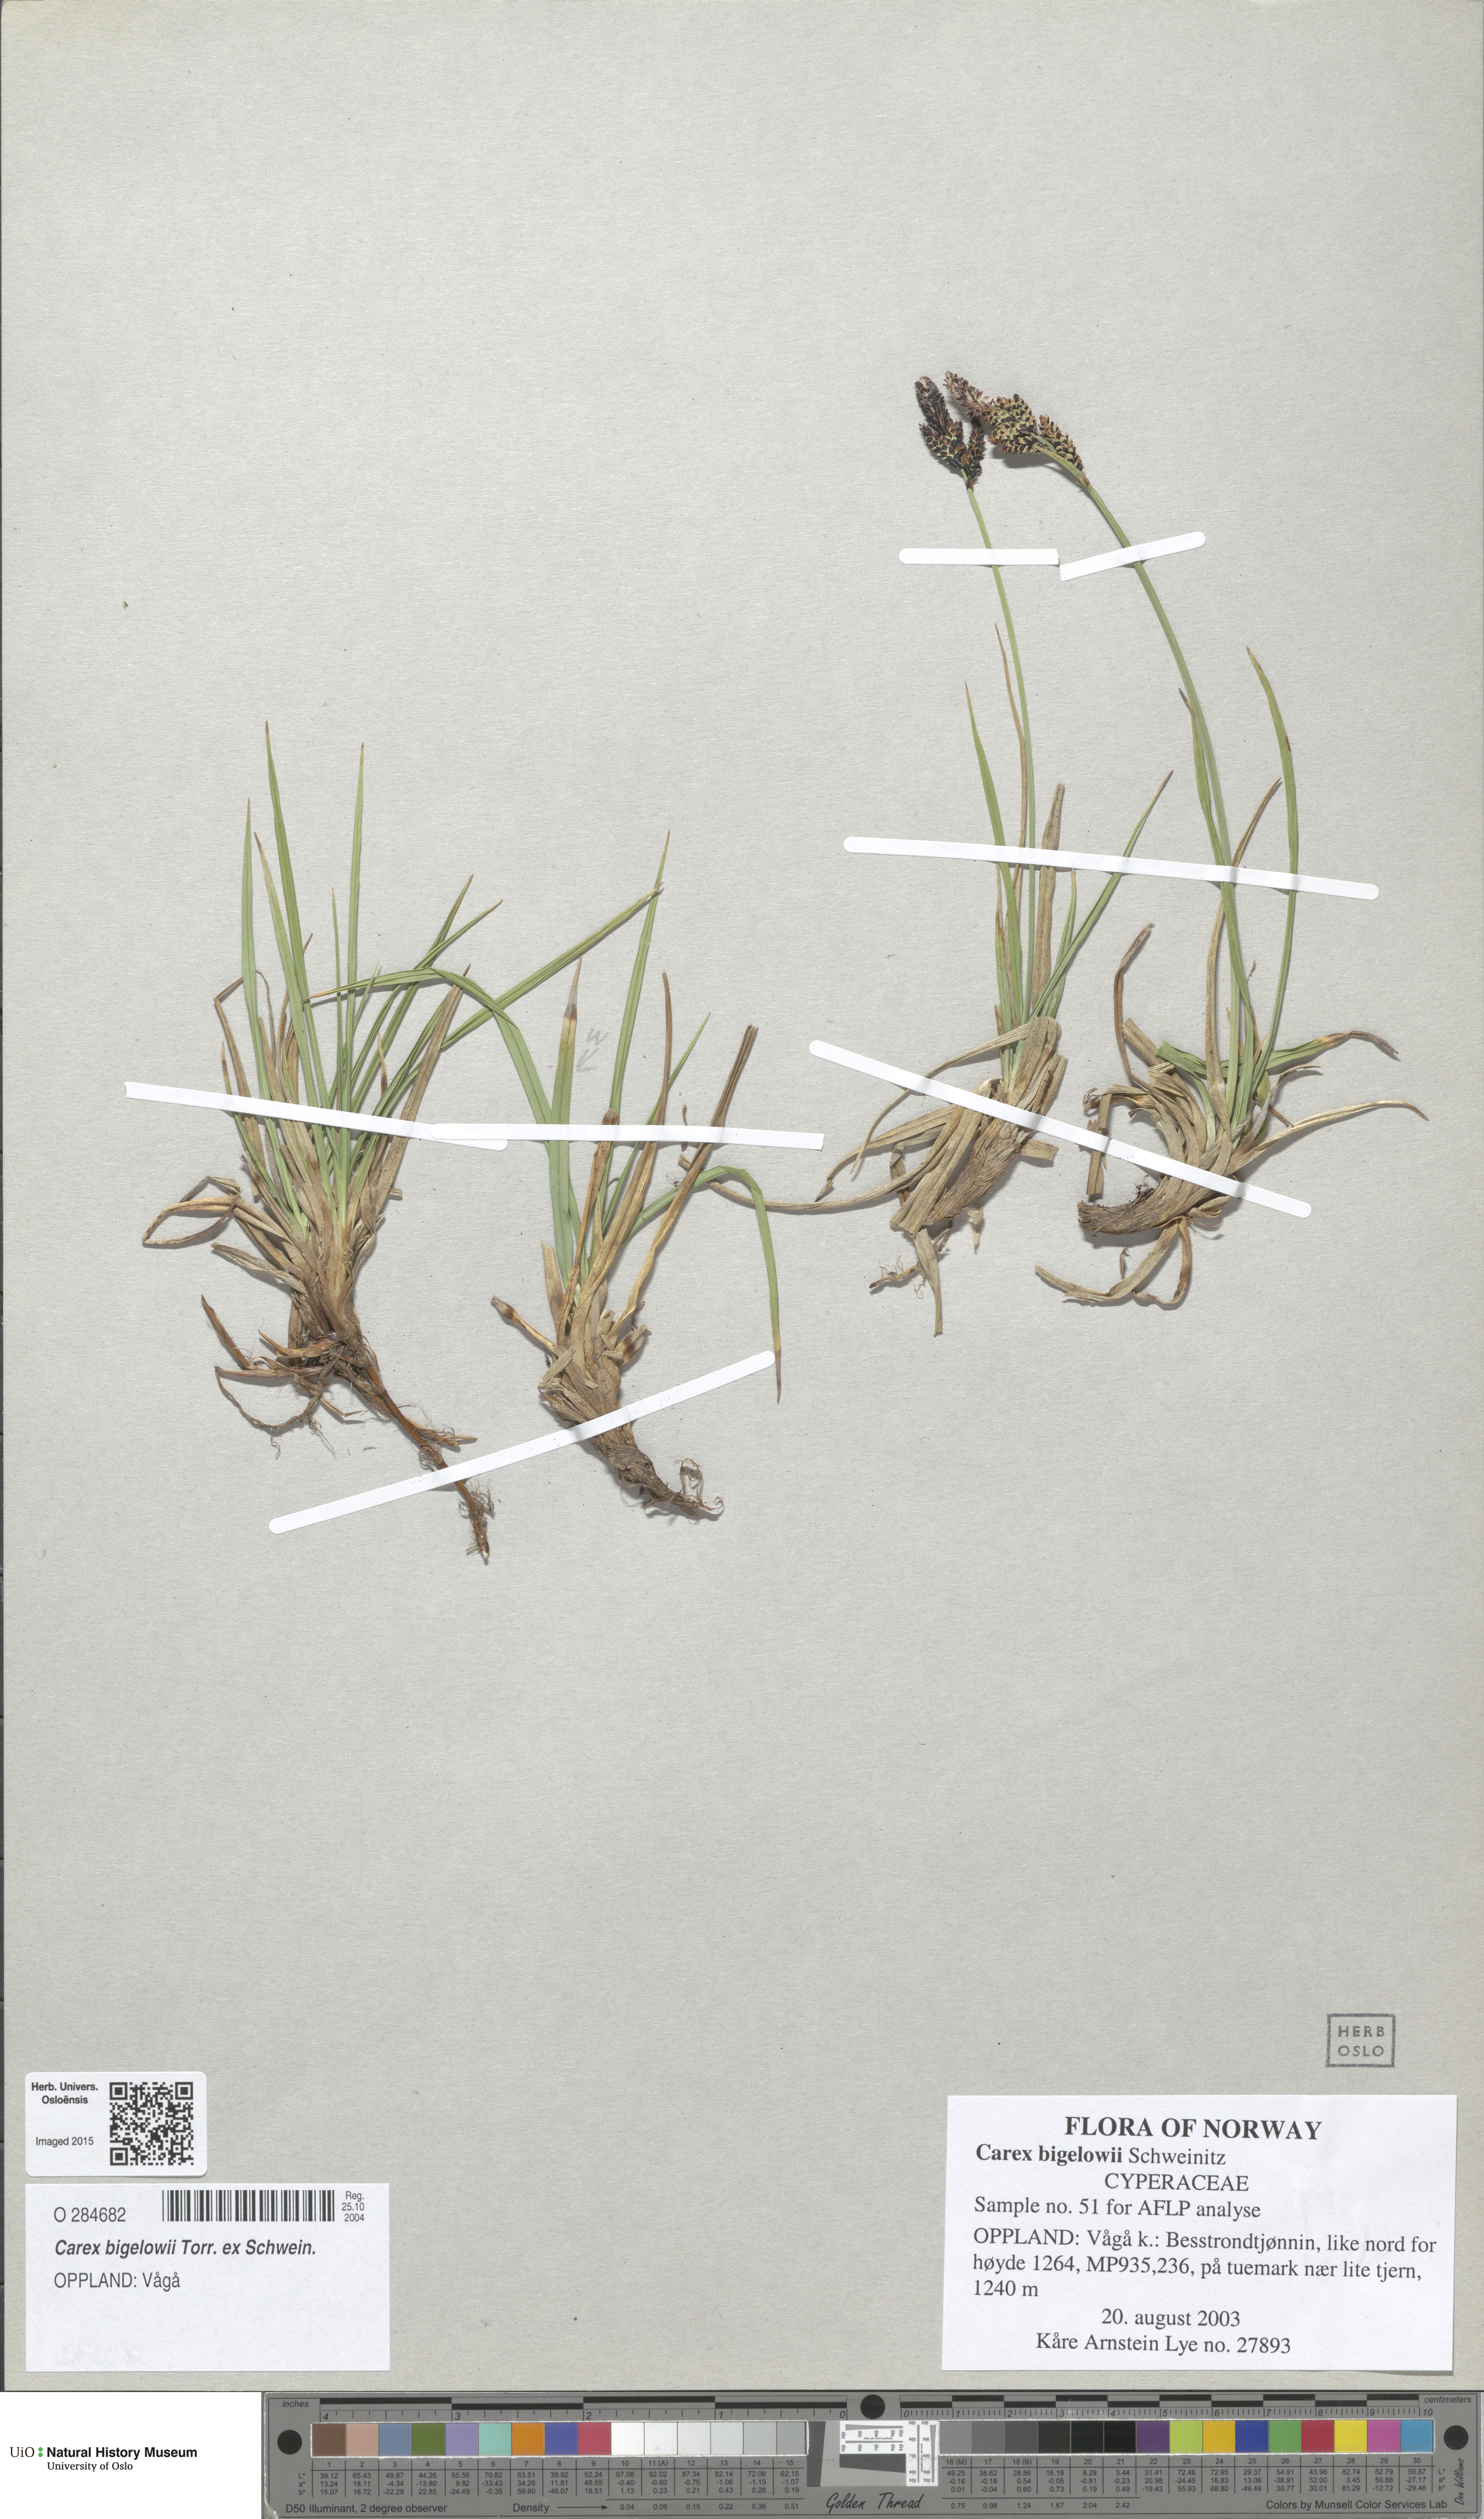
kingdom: Plantae
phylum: Tracheophyta
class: Liliopsida
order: Poales
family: Cyperaceae
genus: Carex
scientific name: Carex bigelowii
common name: Stiff sedge
